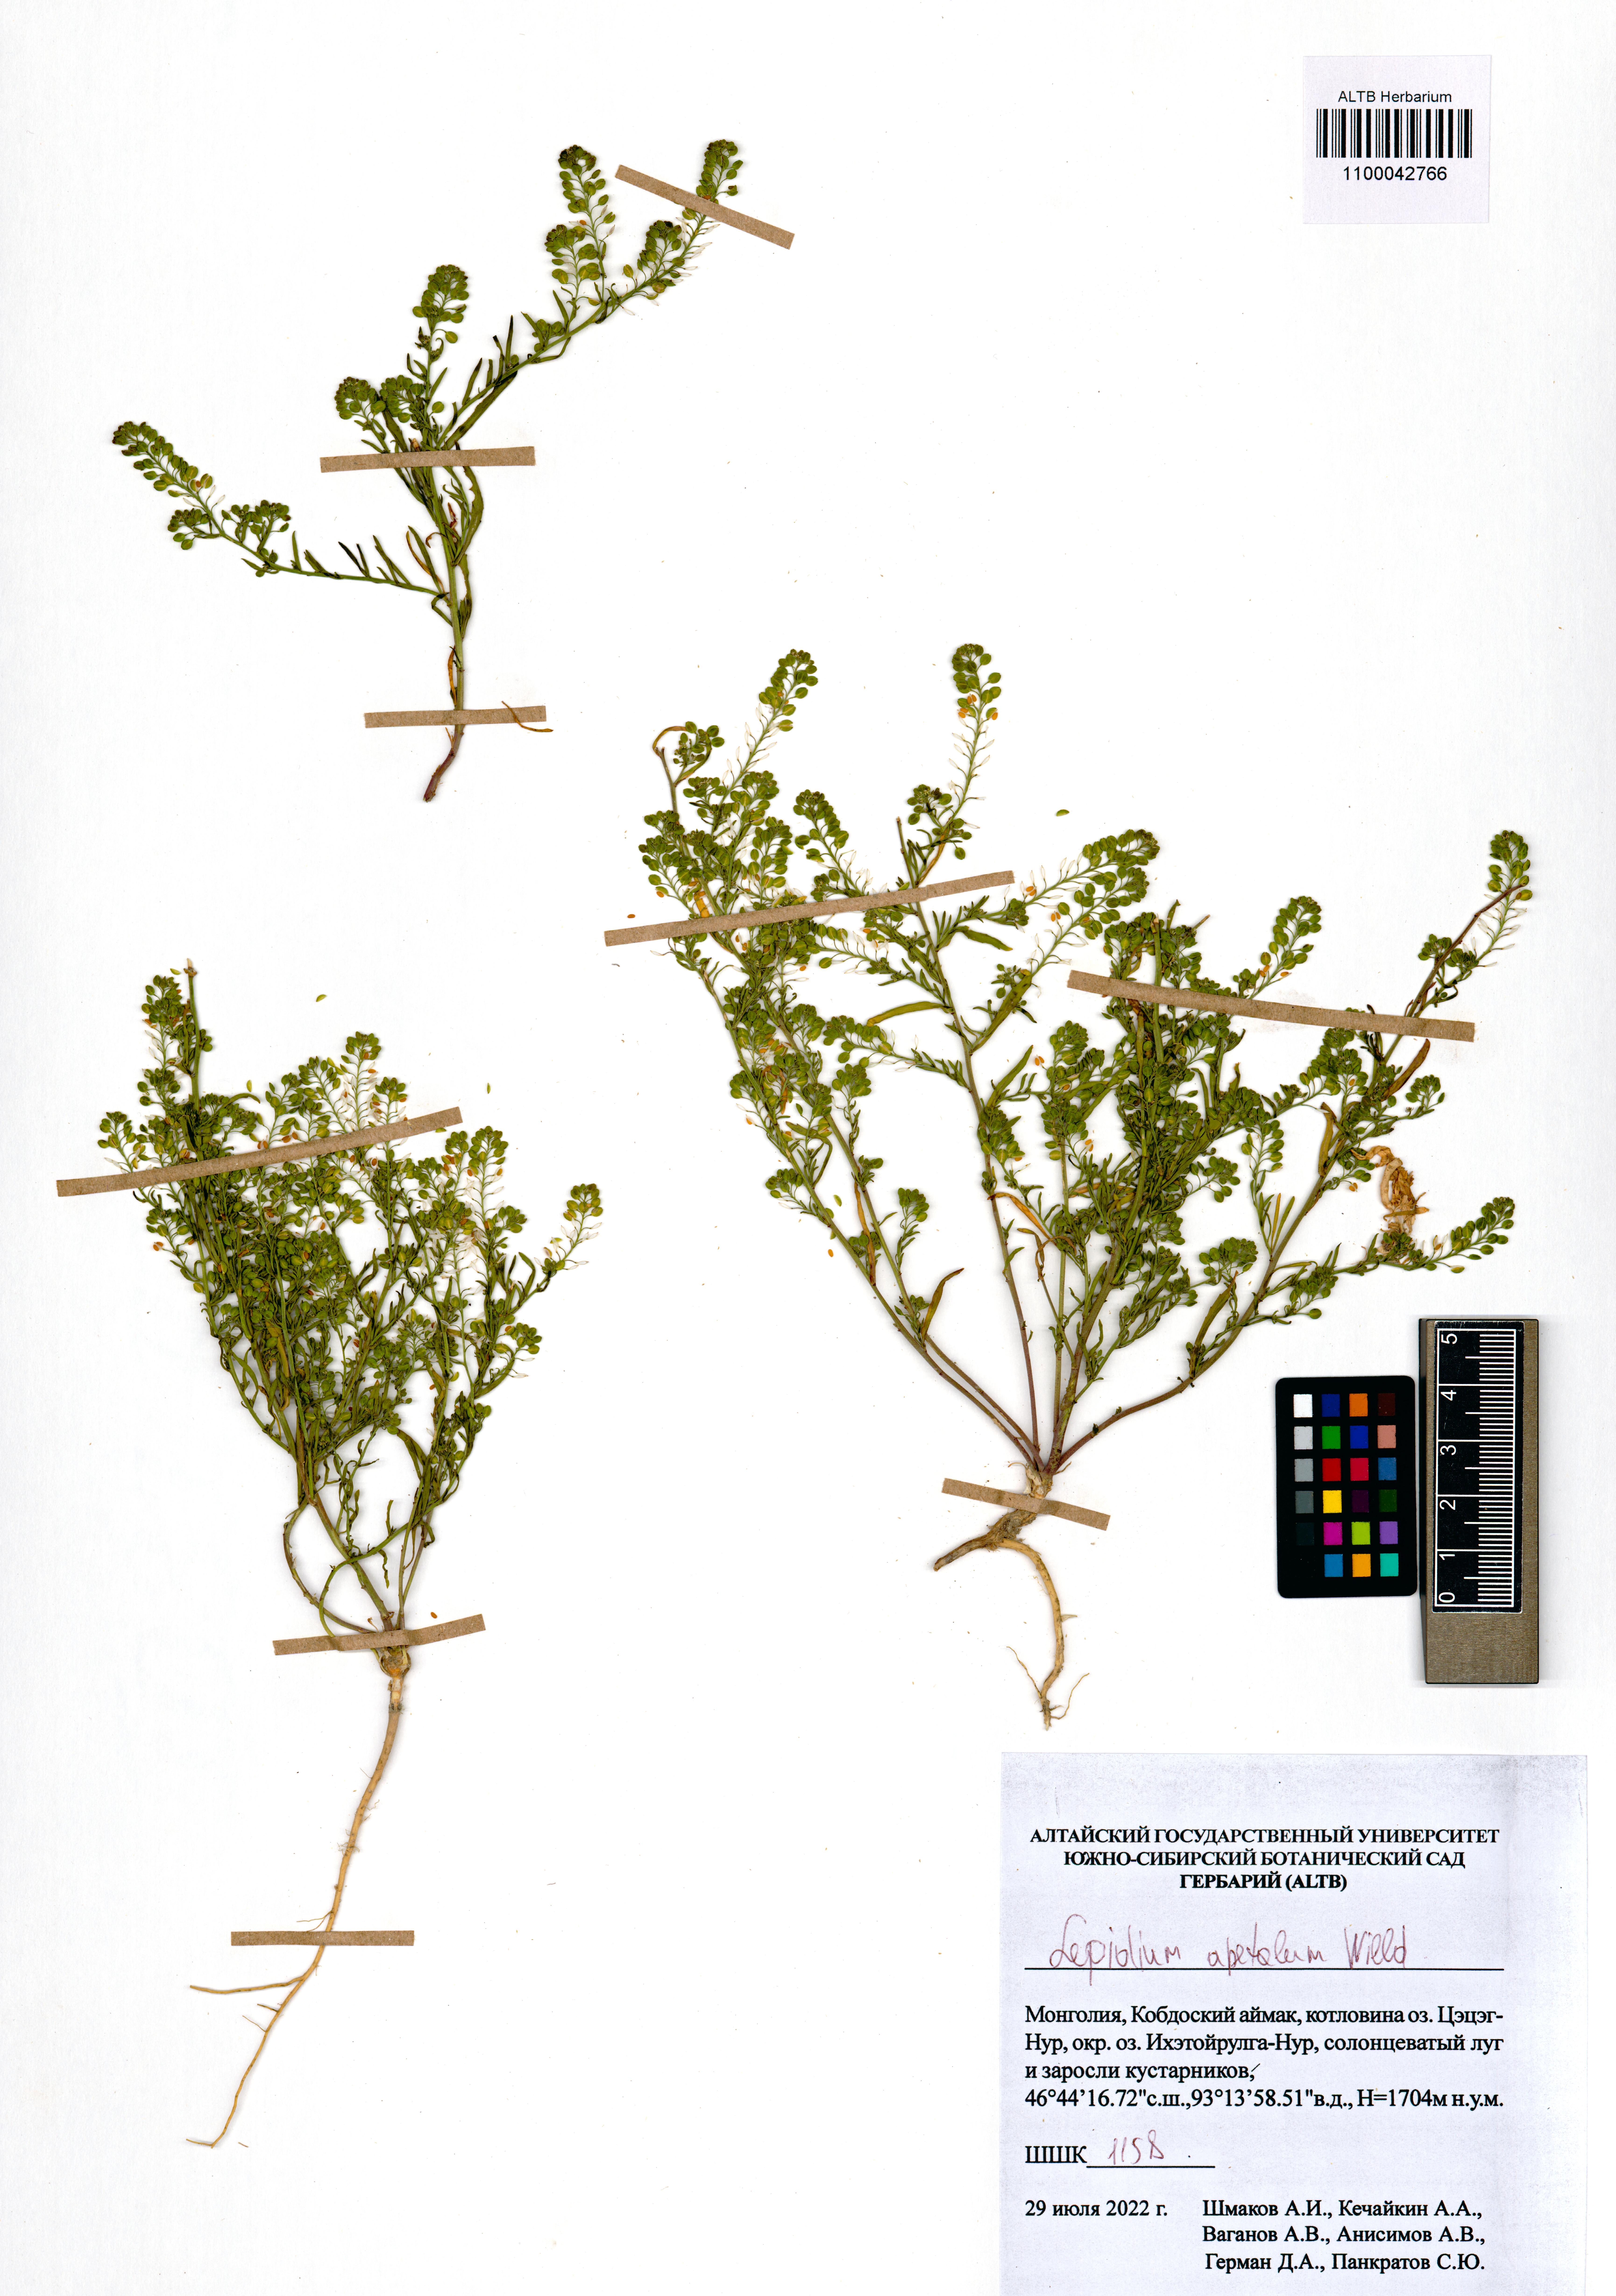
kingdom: Plantae
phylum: Tracheophyta
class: Magnoliopsida
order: Brassicales
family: Brassicaceae
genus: Lepidium
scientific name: Lepidium apetalum
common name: Pepperweed
